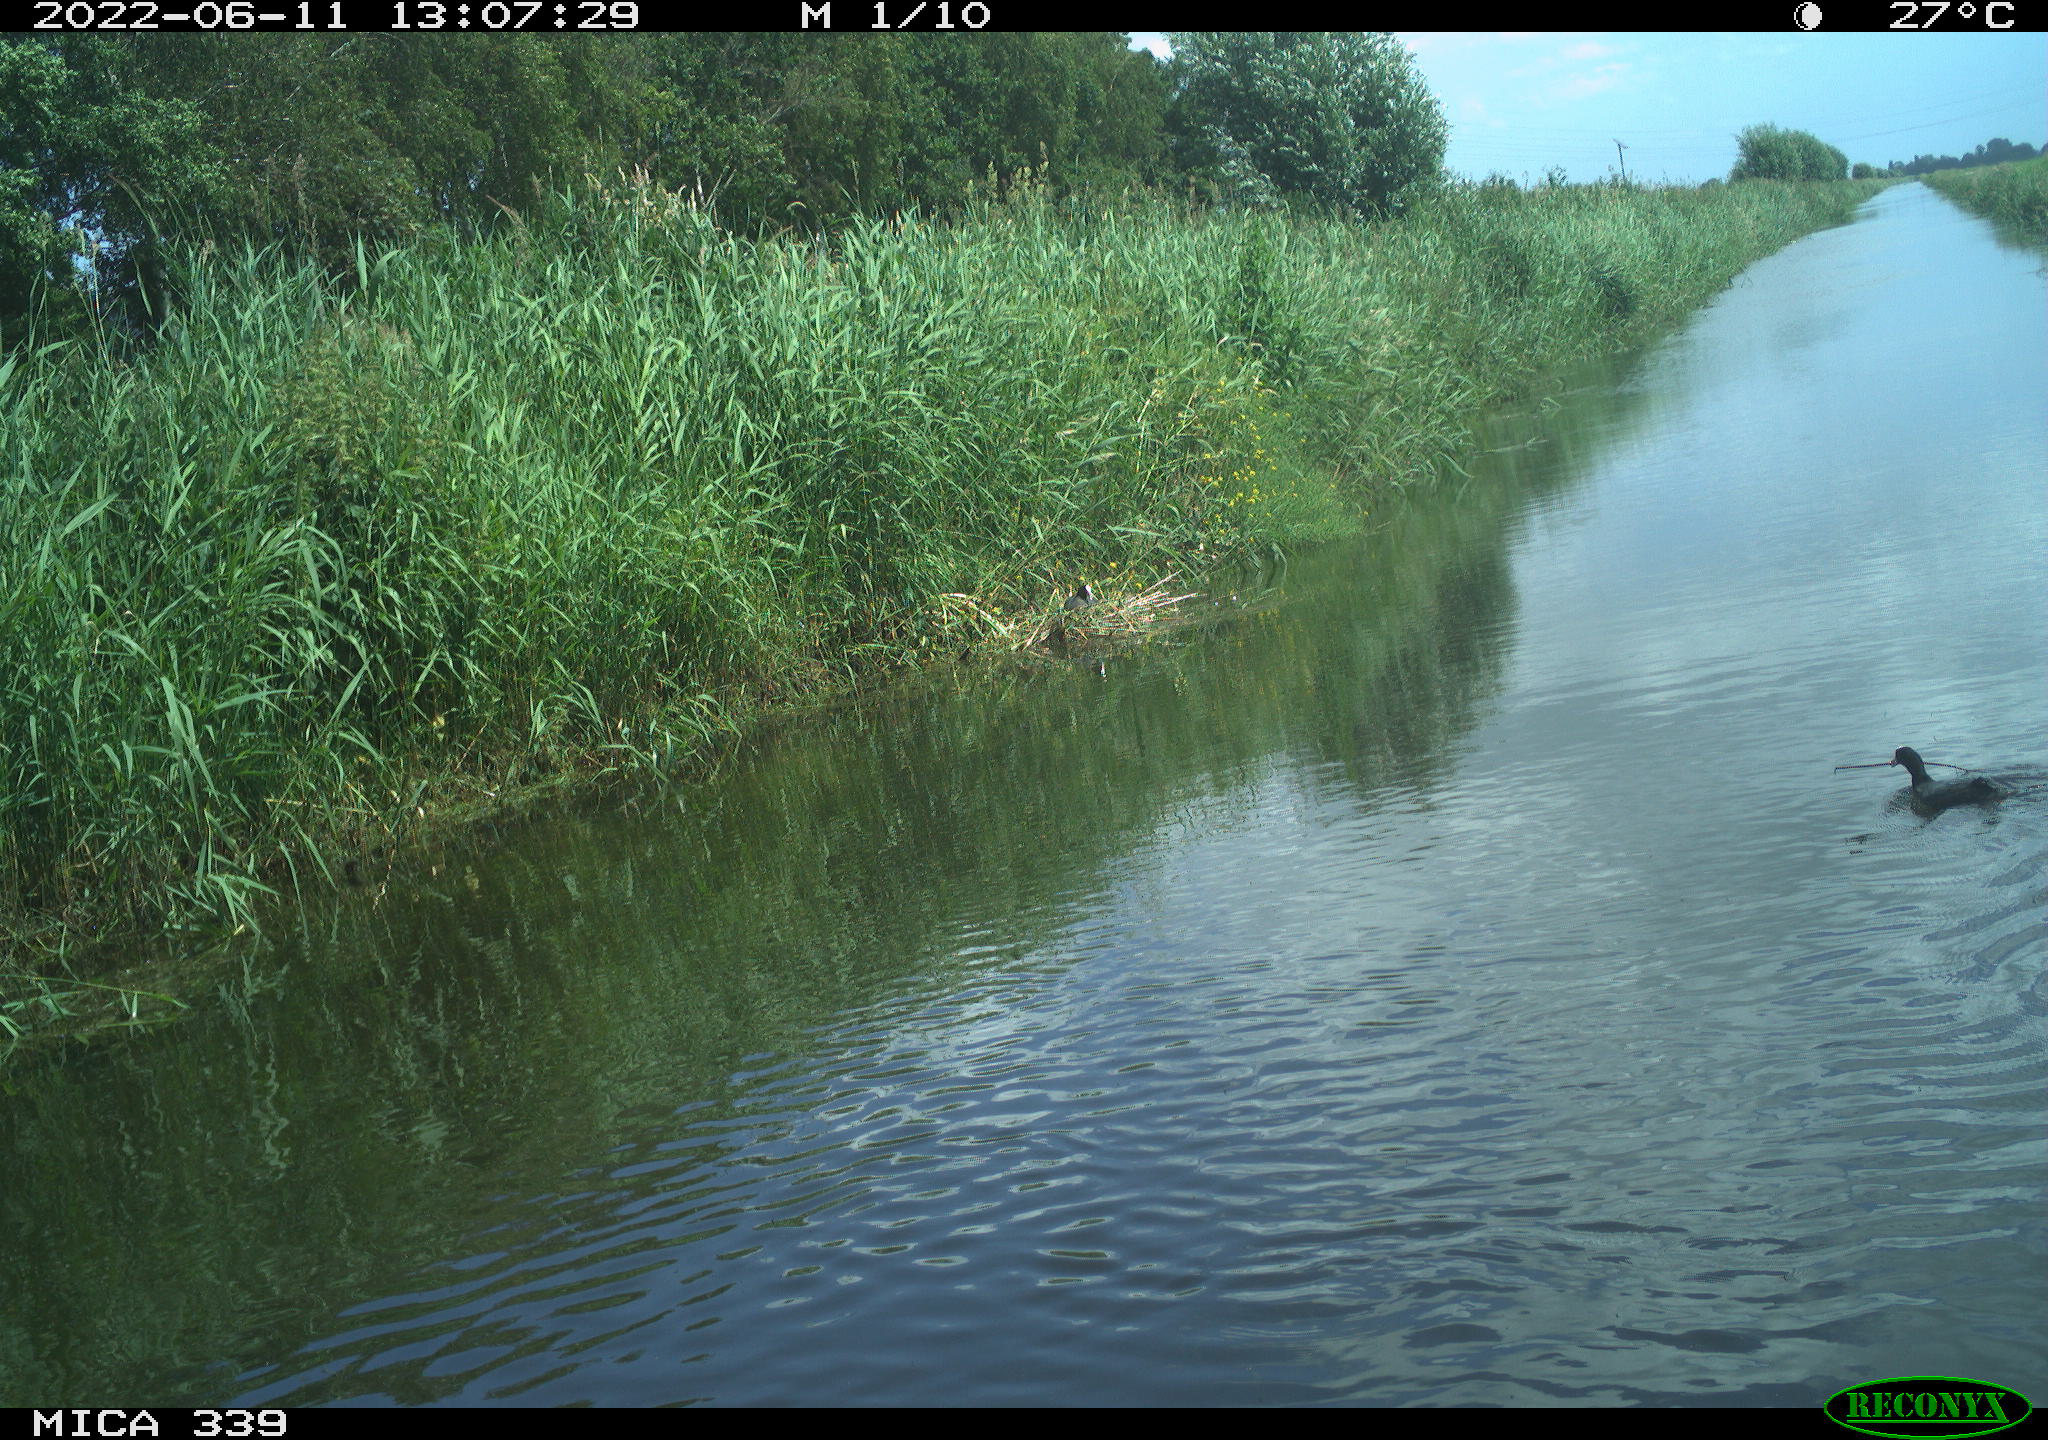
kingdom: Animalia
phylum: Chordata
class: Aves
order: Gruiformes
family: Rallidae
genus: Fulica
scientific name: Fulica atra
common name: Eurasian coot
